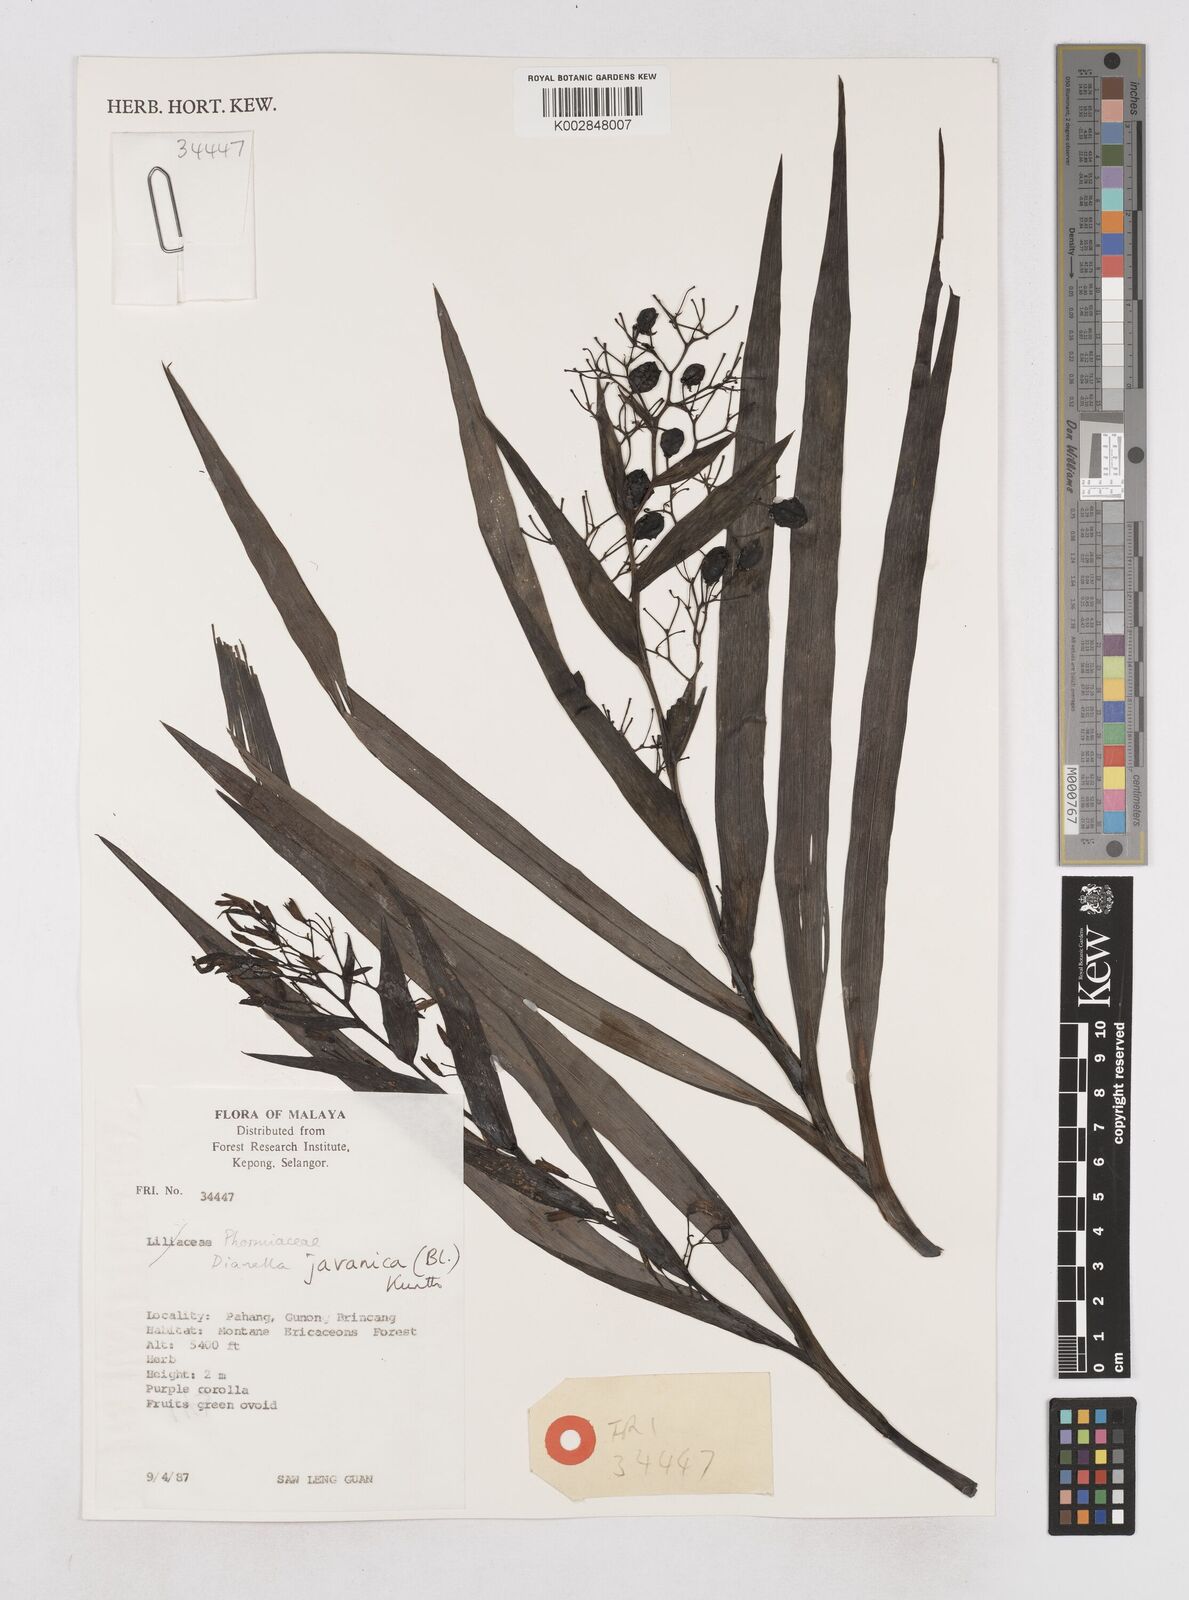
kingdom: Plantae
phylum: Tracheophyta
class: Liliopsida
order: Asparagales
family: Asphodelaceae
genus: Dianella
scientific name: Dianella ensifolia
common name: New zealand lilyplant
